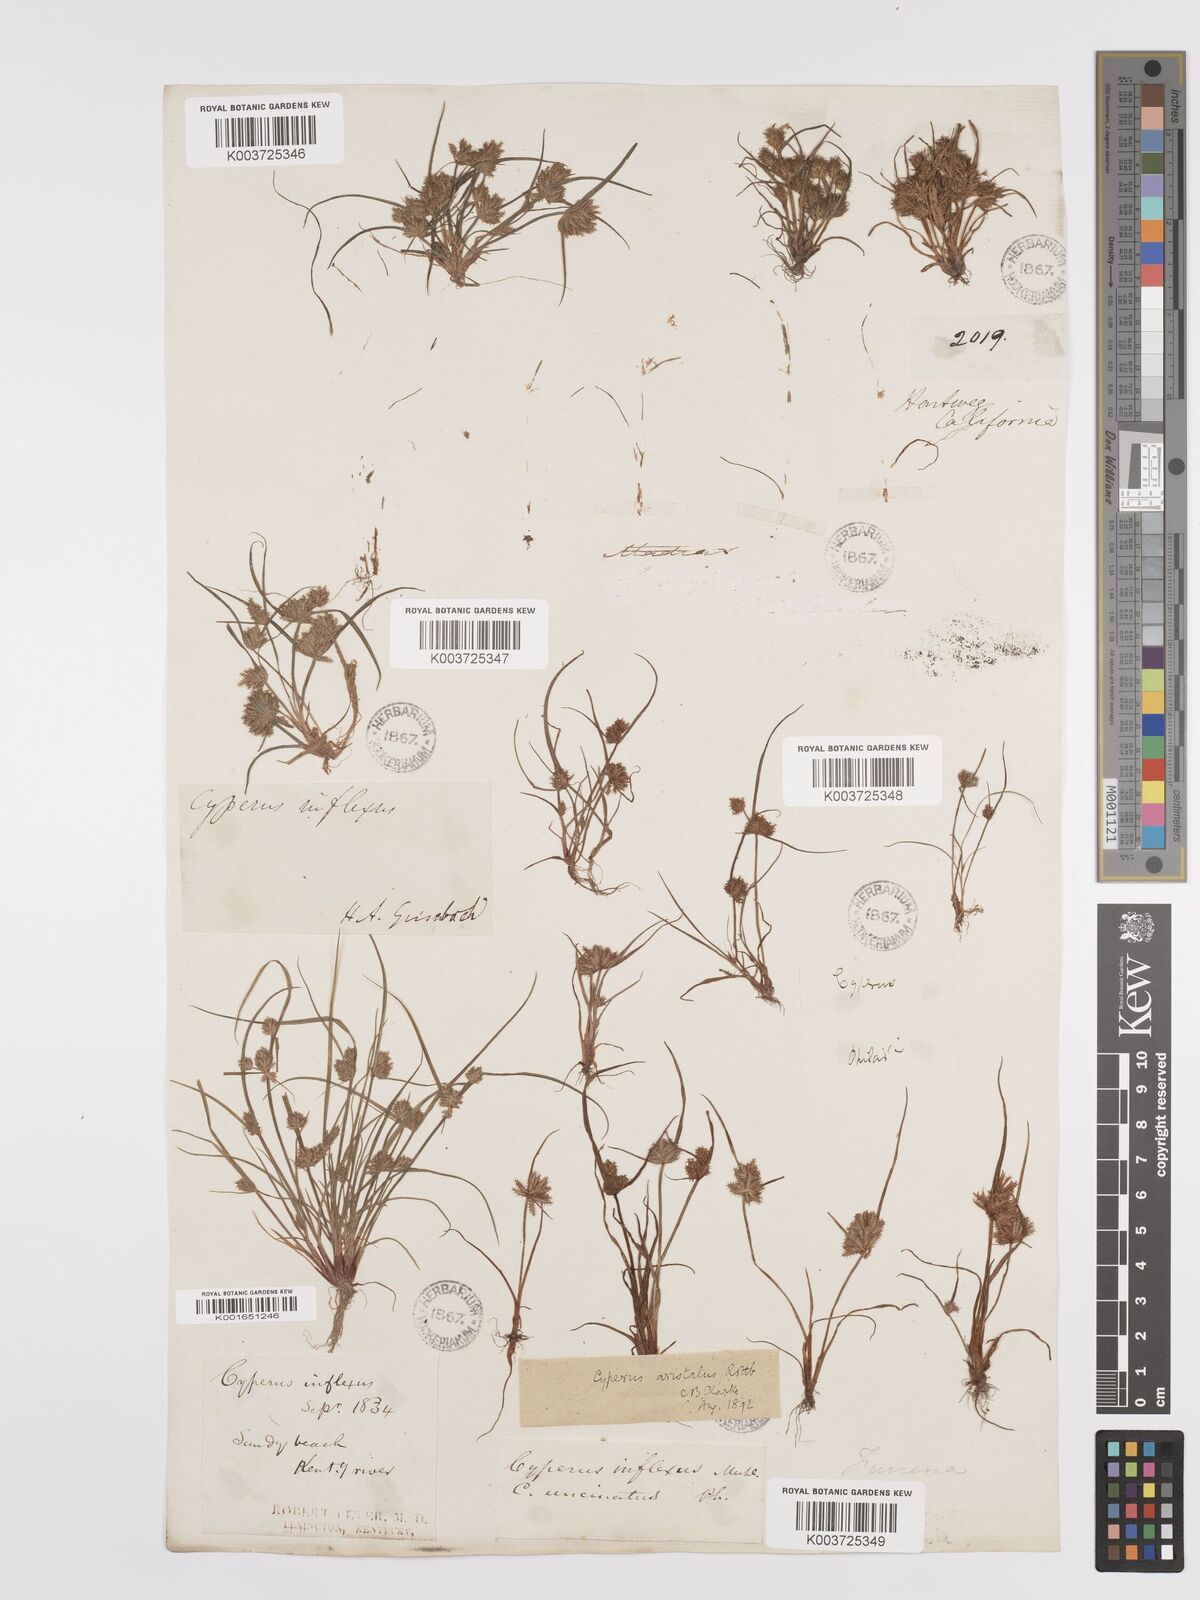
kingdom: Plantae
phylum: Tracheophyta
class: Liliopsida
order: Poales
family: Cyperaceae
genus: Cyperus
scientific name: Cyperus squarrosus
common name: Awned cyperus
